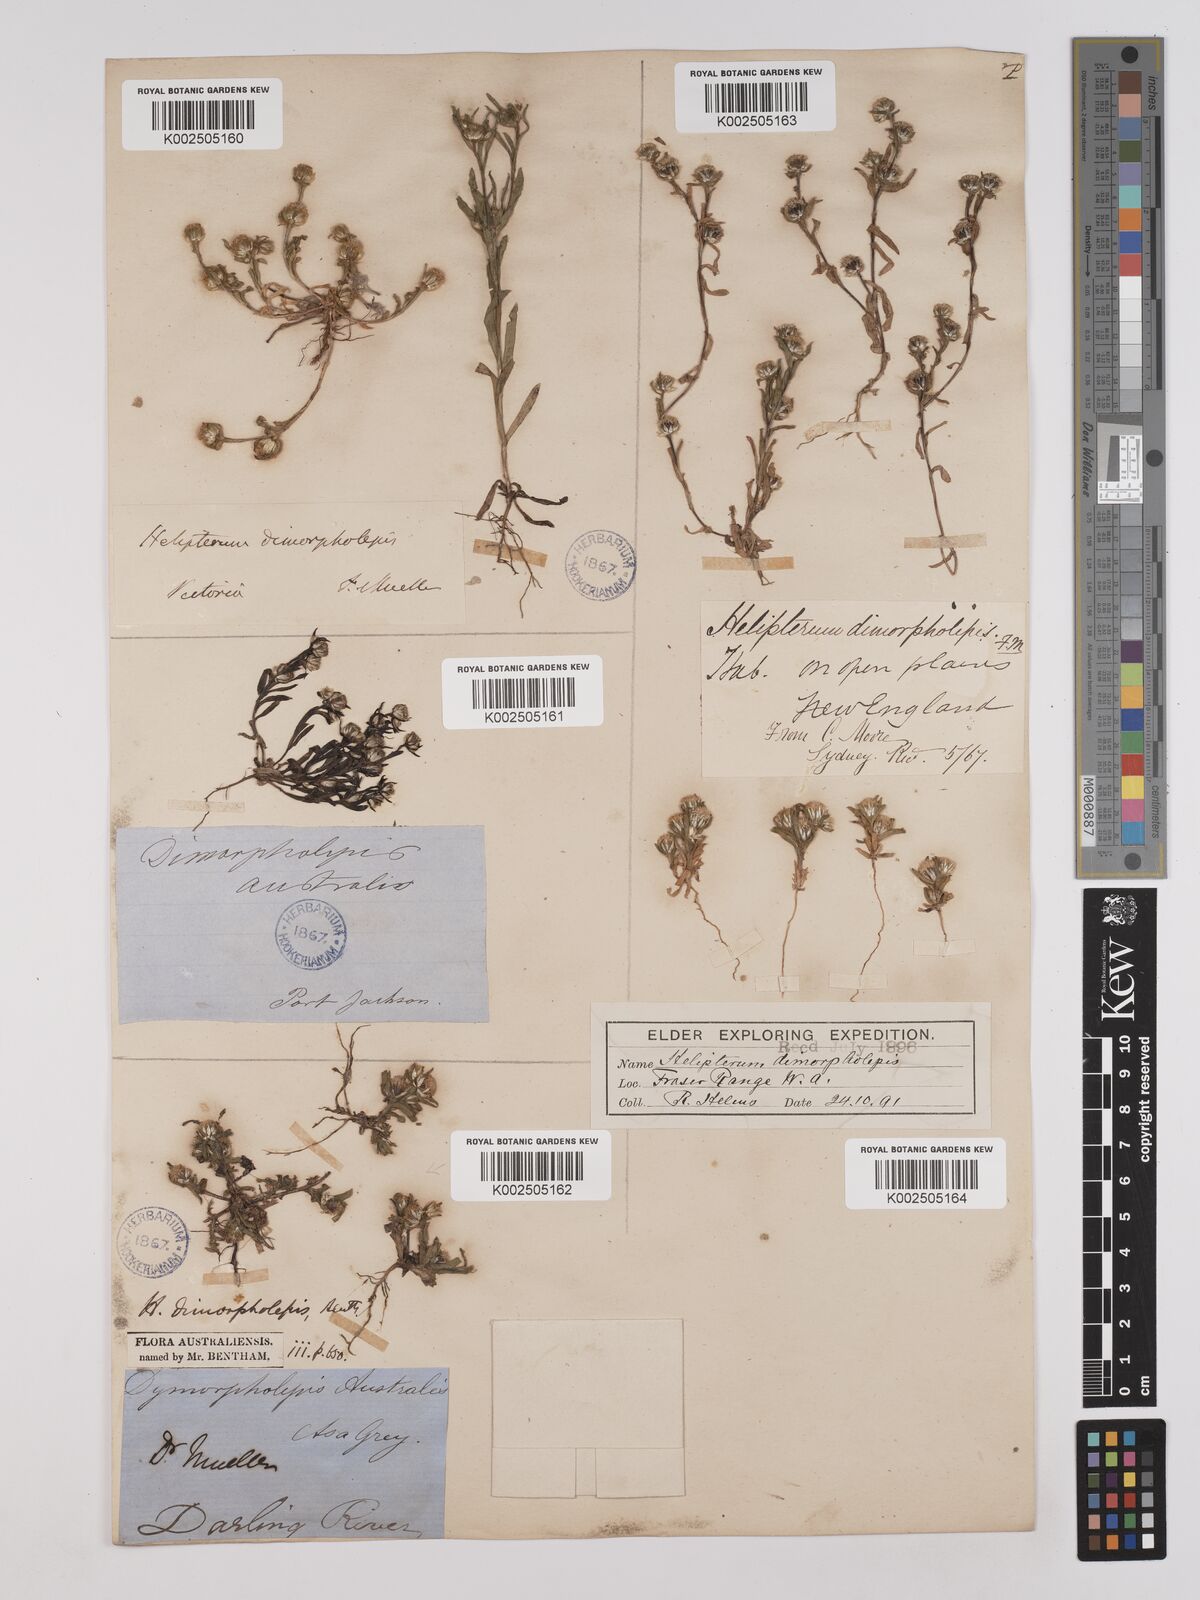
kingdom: Plantae
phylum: Tracheophyta
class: Magnoliopsida
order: Asterales
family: Asteraceae
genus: Triptilodiscus
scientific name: Triptilodiscus pygmaeus
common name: Common sunray
